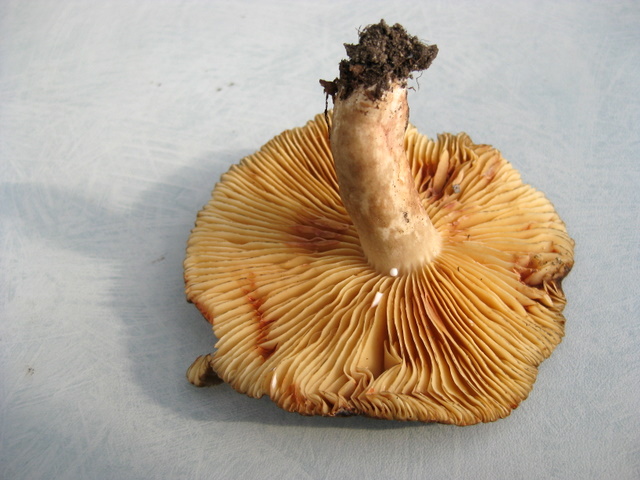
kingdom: Fungi
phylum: Basidiomycota
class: Agaricomycetes
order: Russulales
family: Russulaceae
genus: Lactarius
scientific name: Lactarius romagnesii
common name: fjernbladet mælkehat
